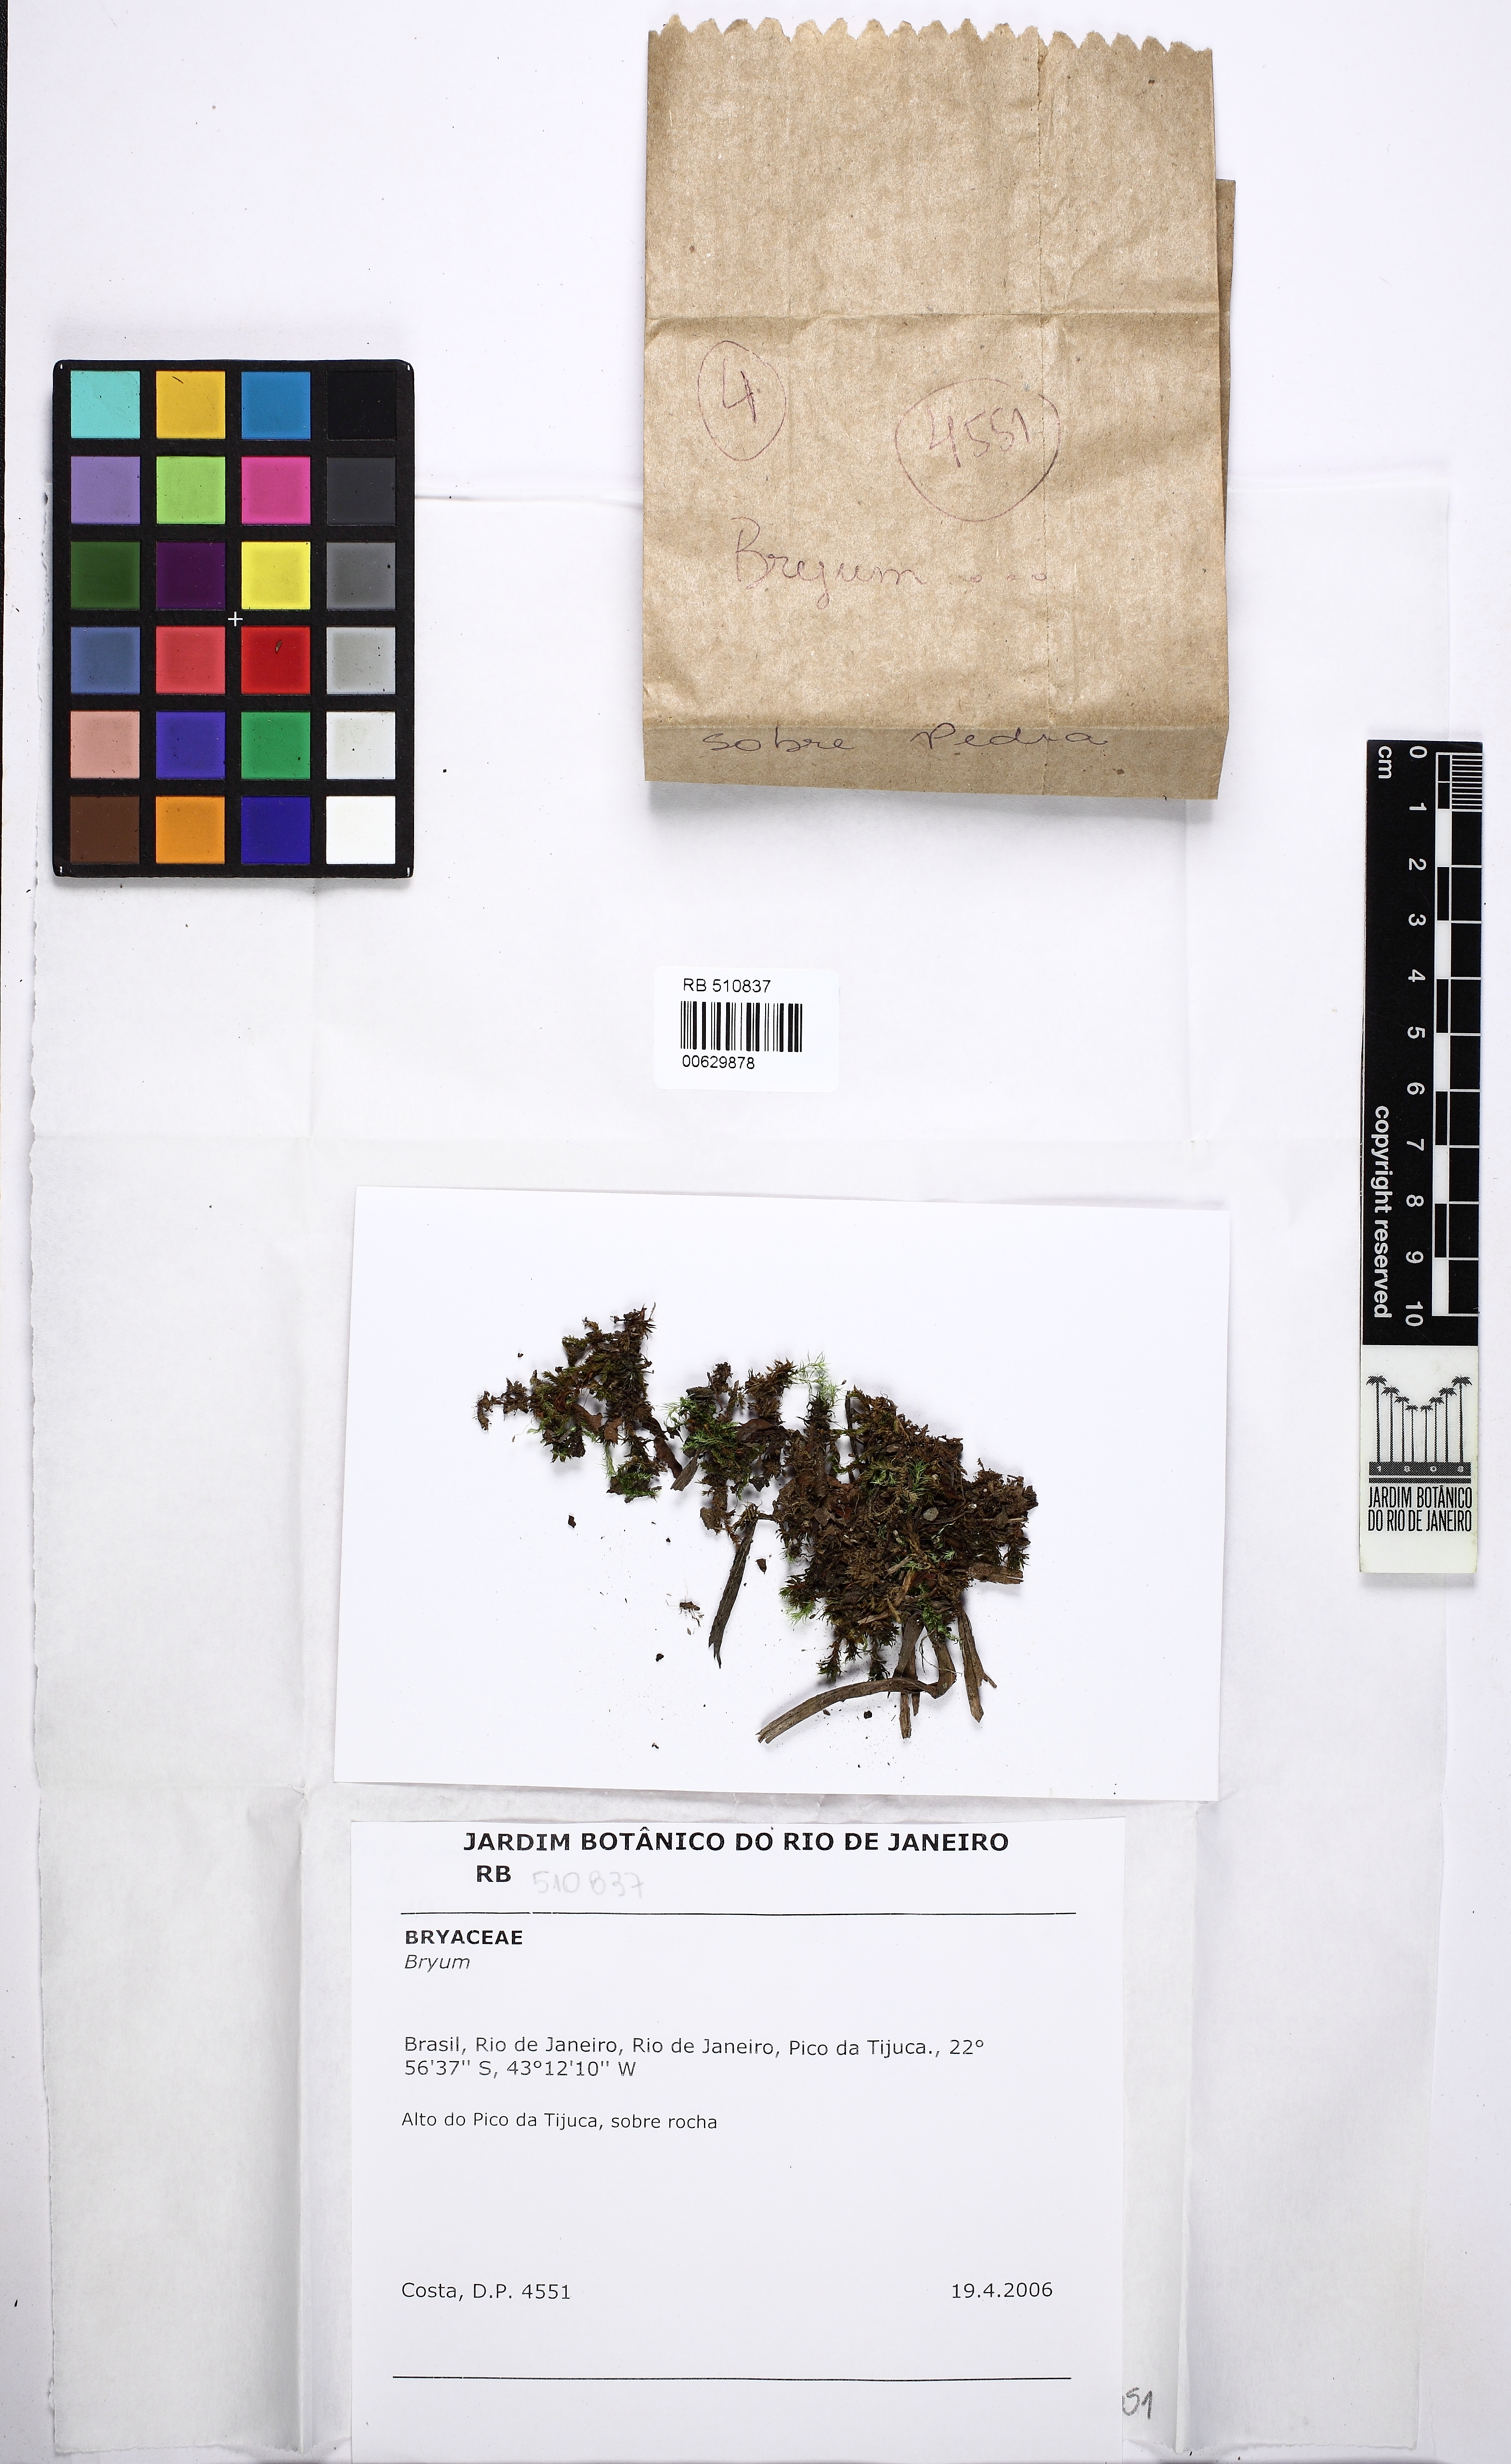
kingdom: Plantae
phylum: Bryophyta
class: Bryopsida
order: Bryales
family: Bryaceae
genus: Bryum
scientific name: Bryum
